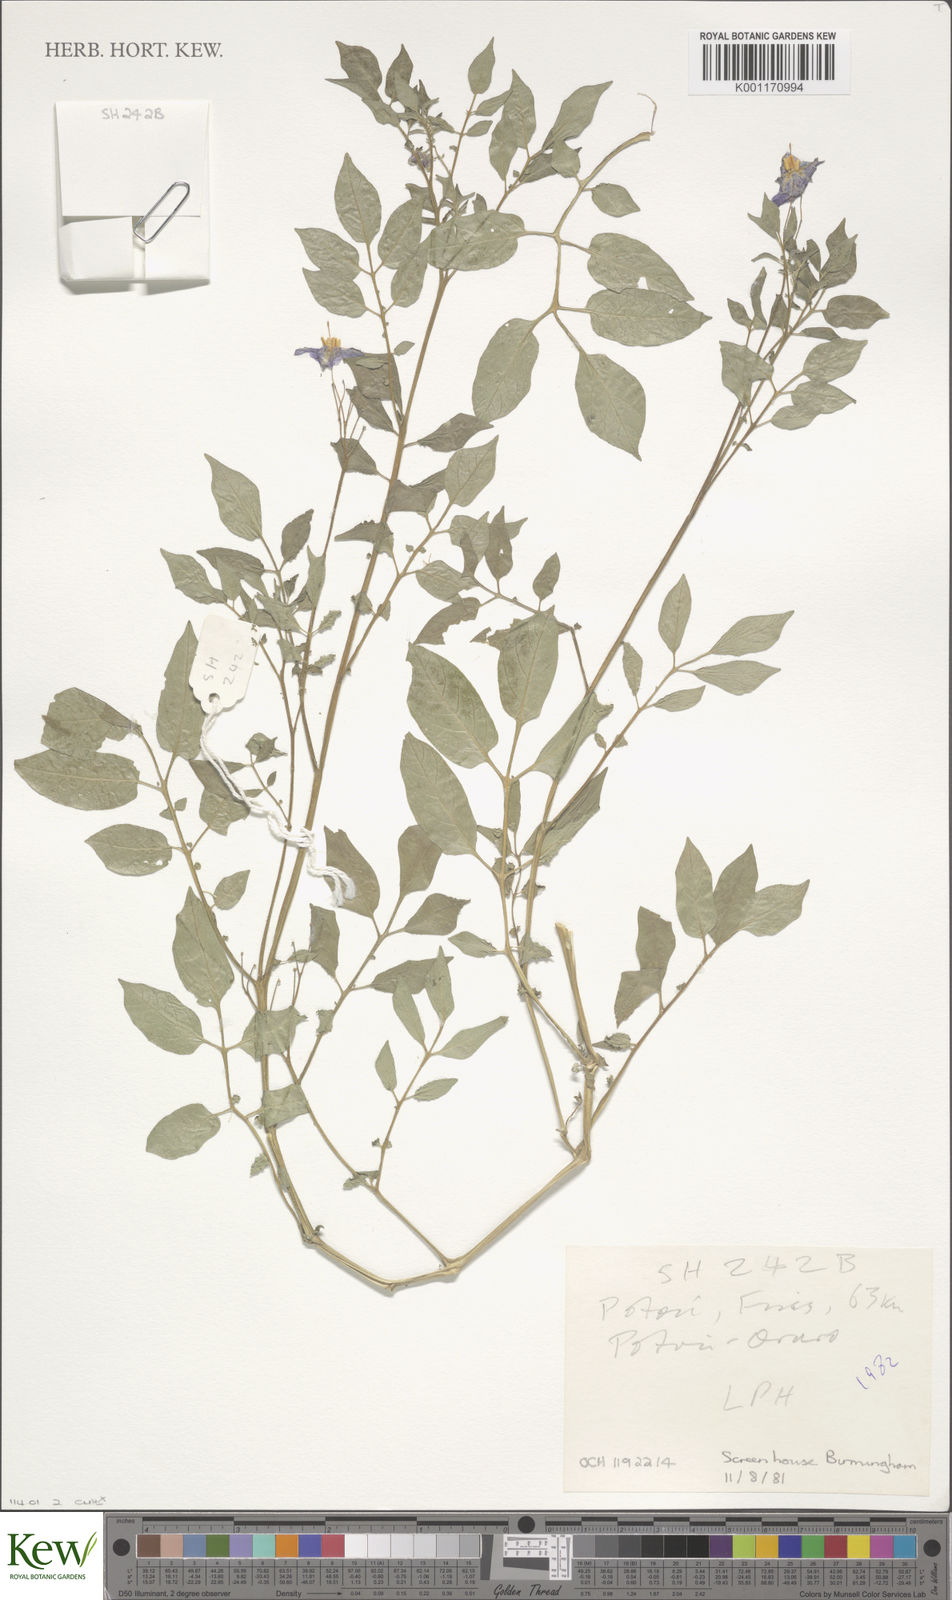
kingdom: Plantae
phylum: Tracheophyta
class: Magnoliopsida
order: Solanales
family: Solanaceae
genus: Solanum
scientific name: Solanum
